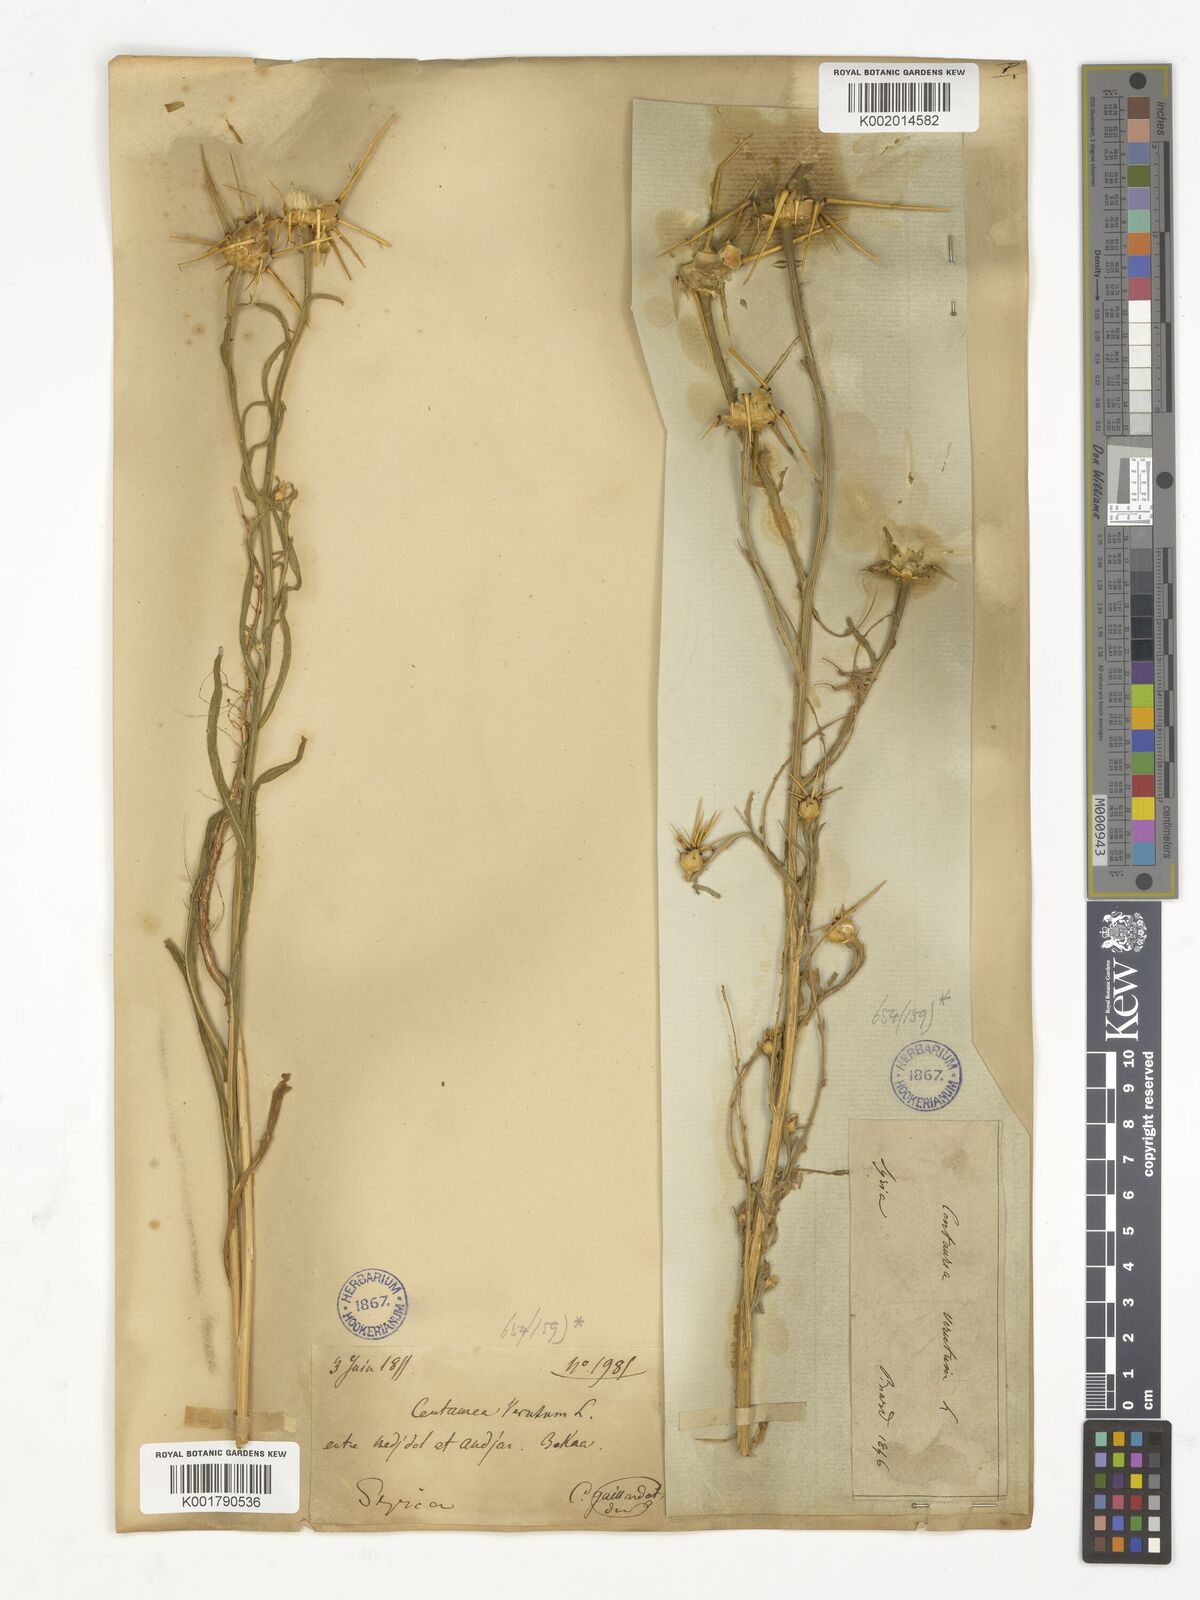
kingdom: Plantae
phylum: Tracheophyta
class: Magnoliopsida
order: Asterales
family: Asteraceae
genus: Centaurea
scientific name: Centaurea verutum
